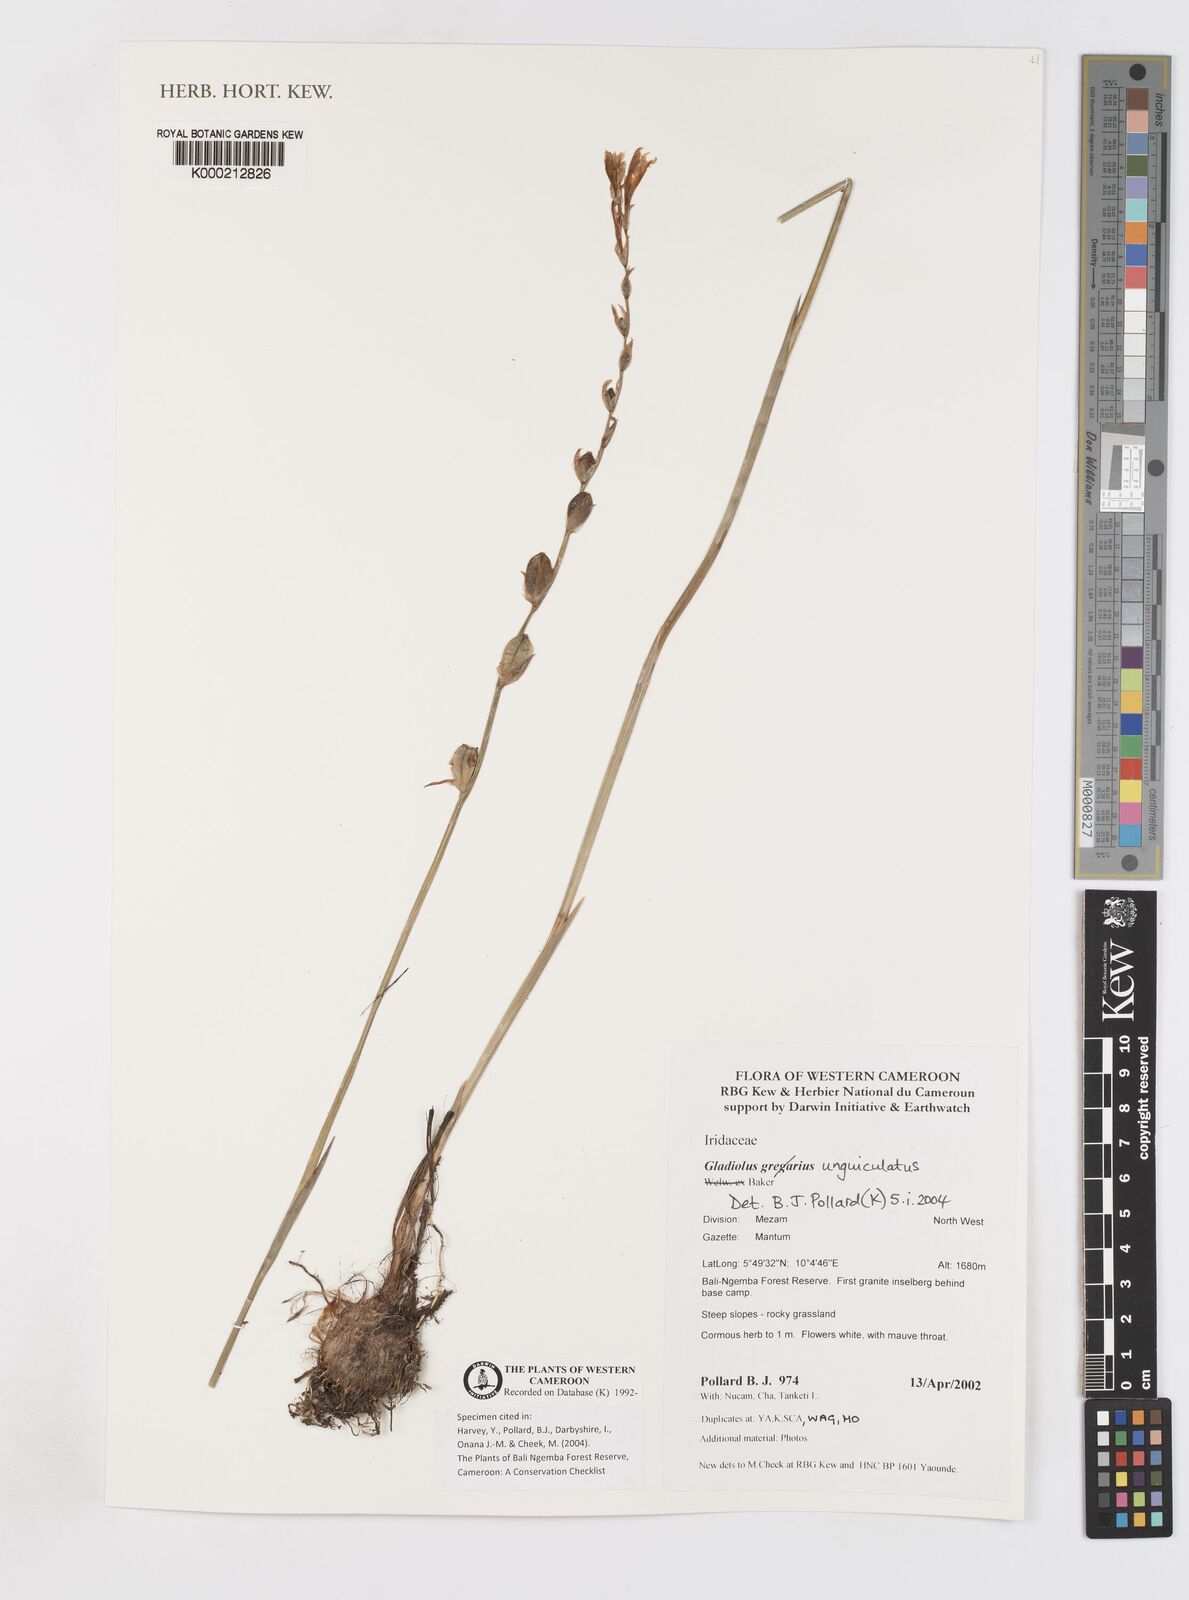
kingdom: Plantae
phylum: Tracheophyta
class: Liliopsida
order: Asparagales
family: Iridaceae
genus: Gladiolus
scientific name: Gladiolus unguiculatus
